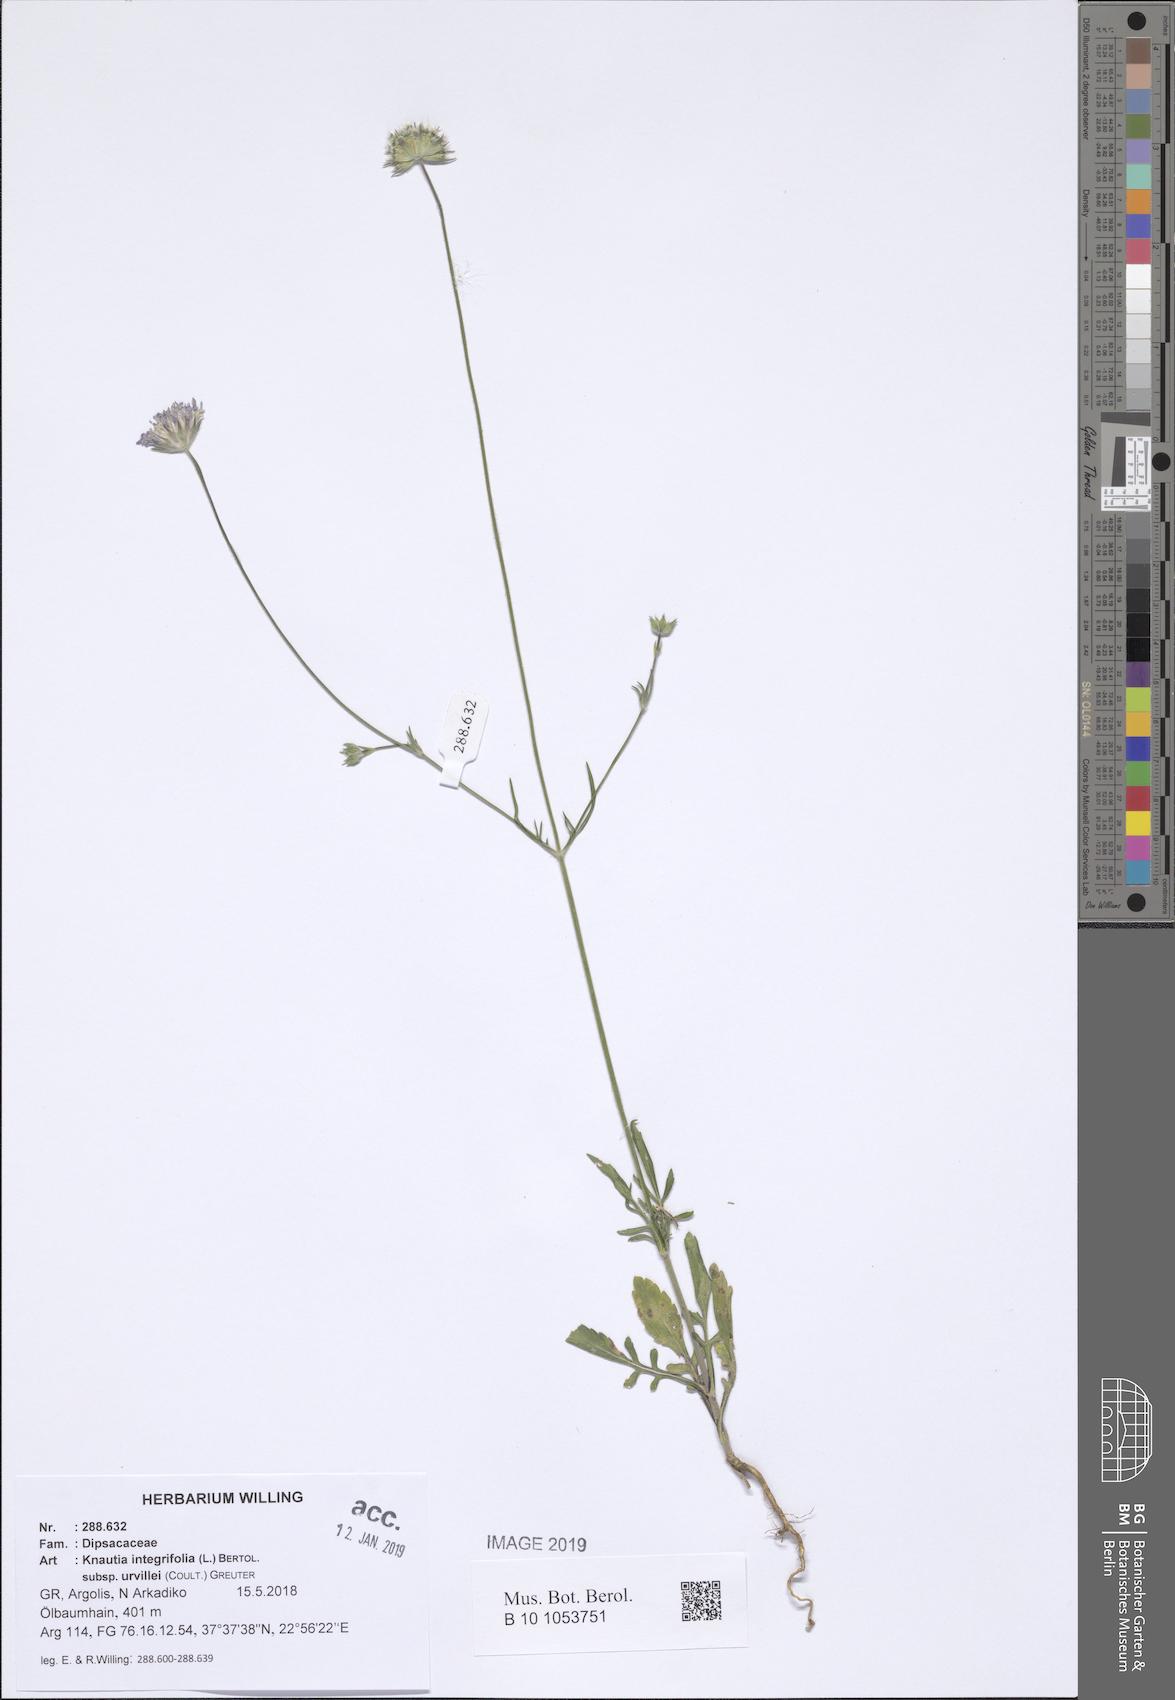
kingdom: Plantae
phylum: Tracheophyta
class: Magnoliopsida
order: Dipsacales
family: Caprifoliaceae
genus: Knautia
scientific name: Knautia integrifolia
